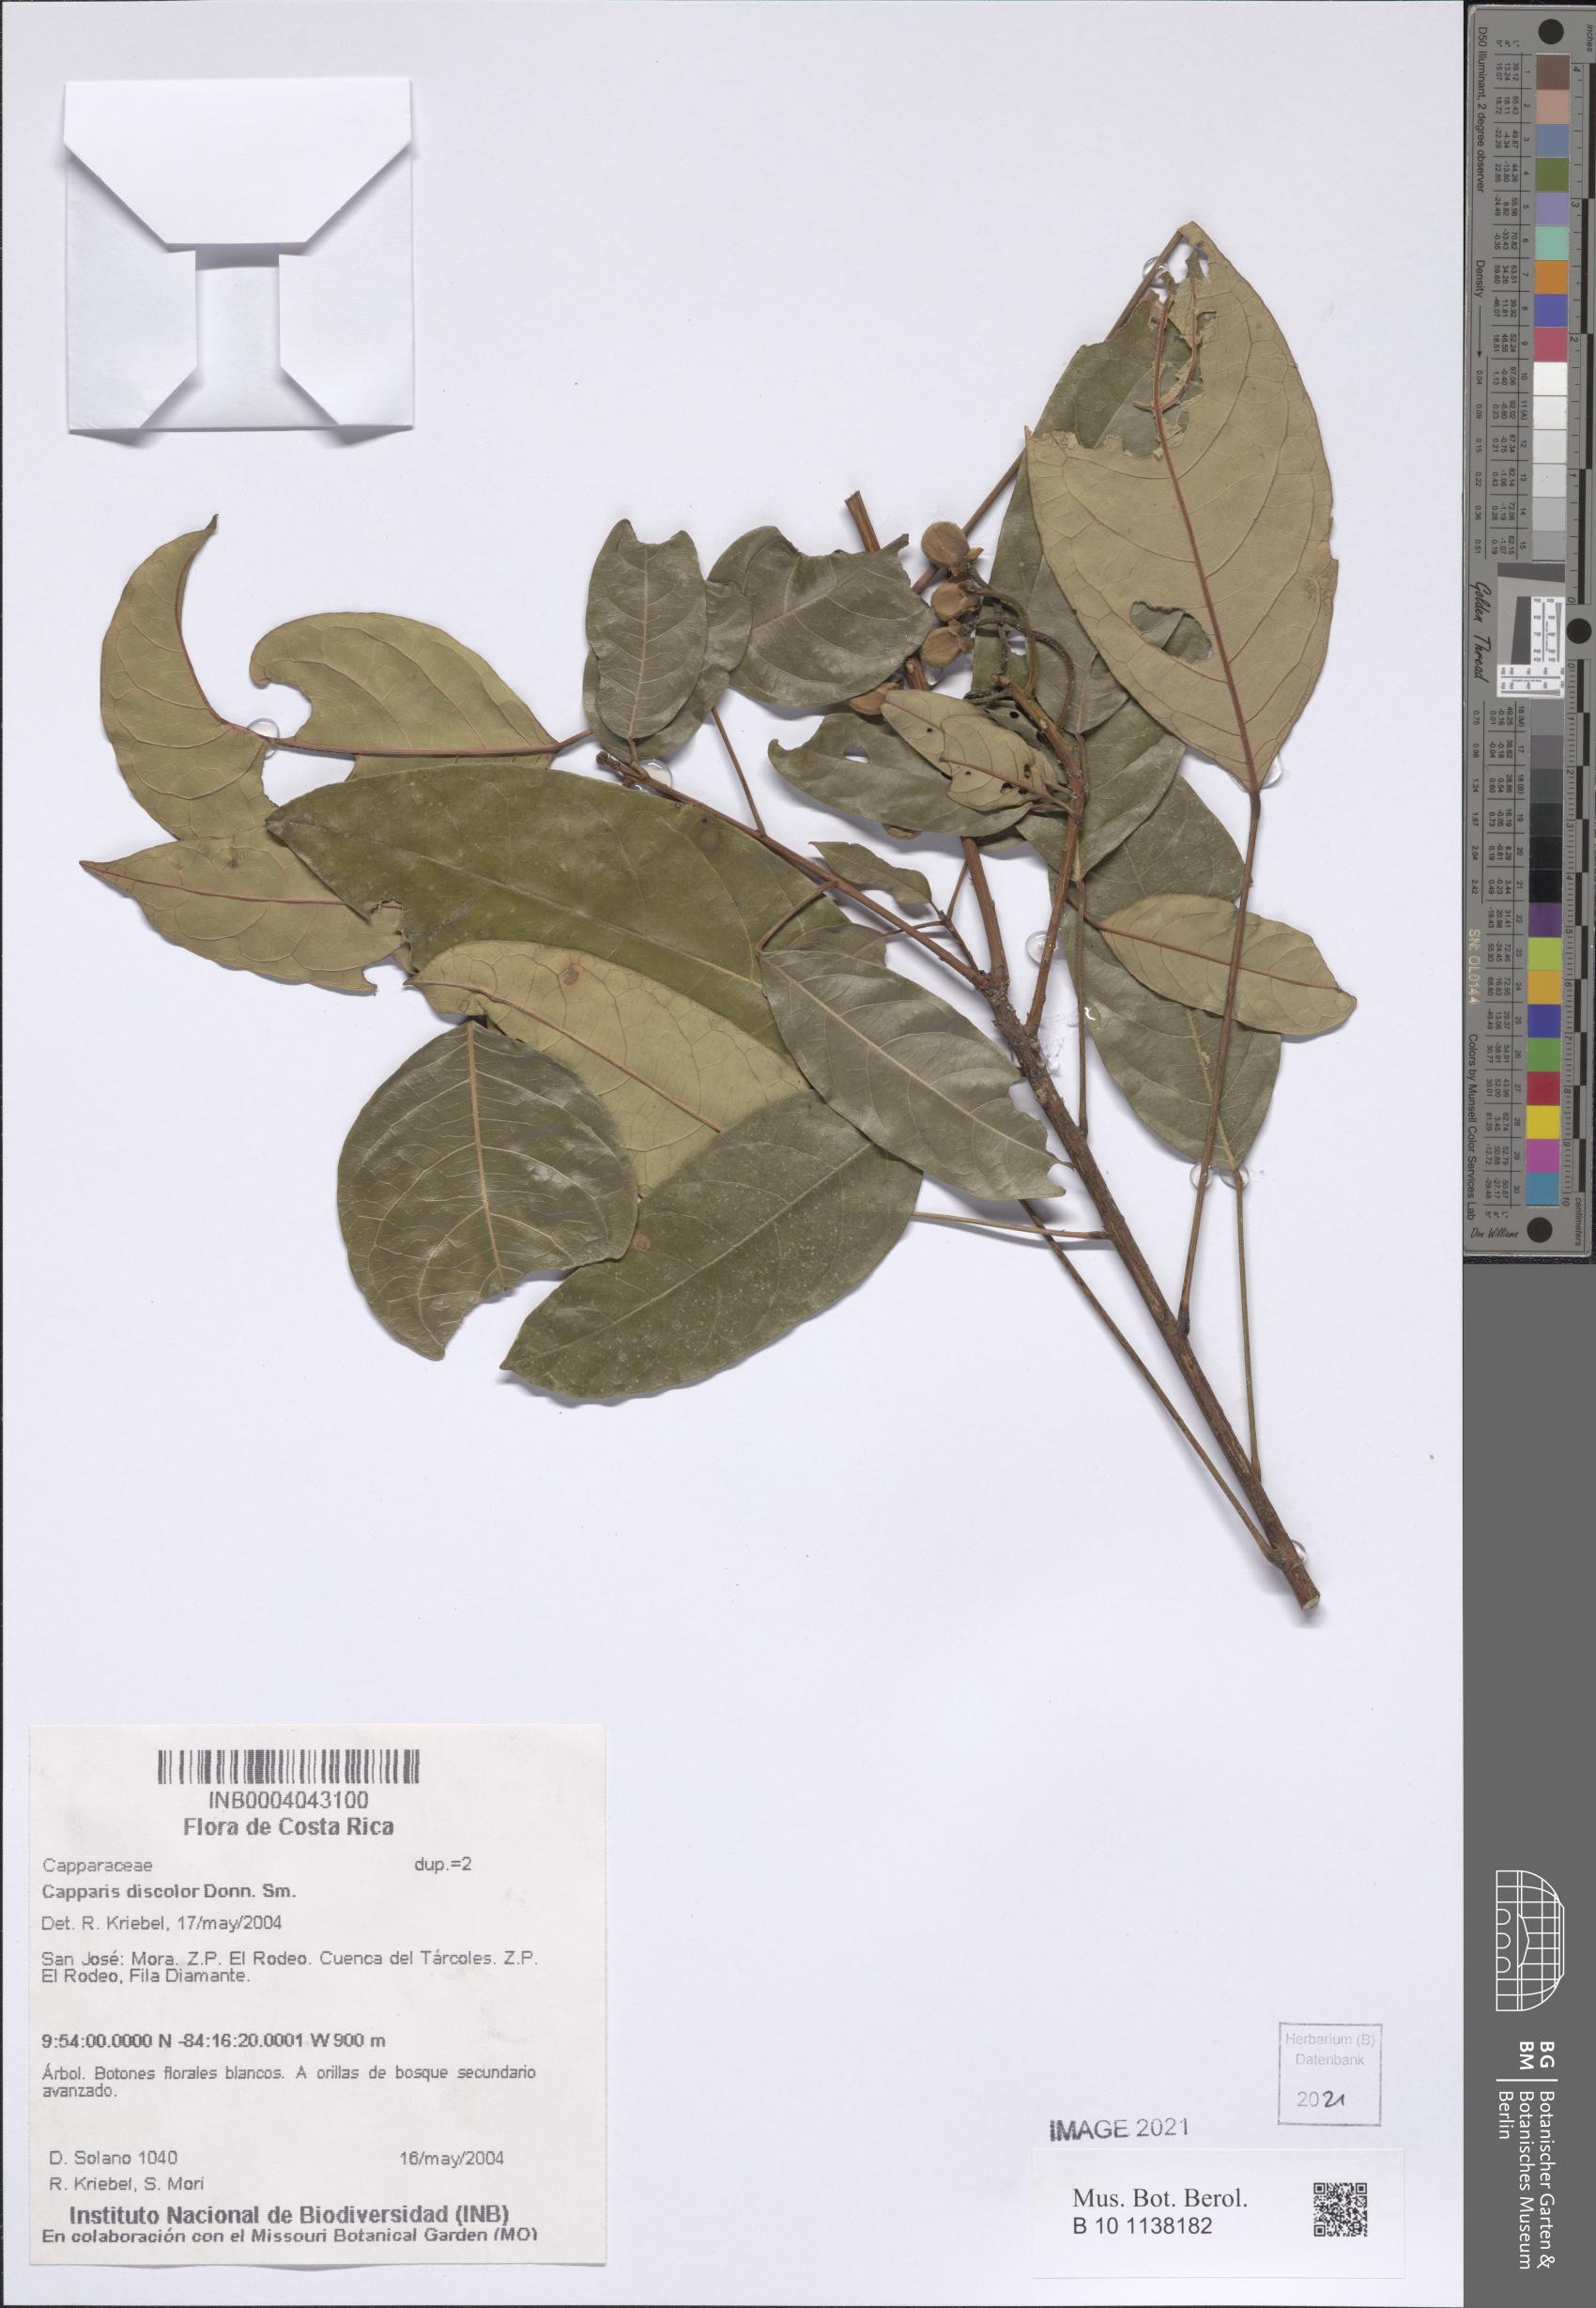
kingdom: Plantae
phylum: Tracheophyta
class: Magnoliopsida
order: Brassicales
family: Capparaceae
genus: Capparidastrum
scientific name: Capparidastrum discolor
